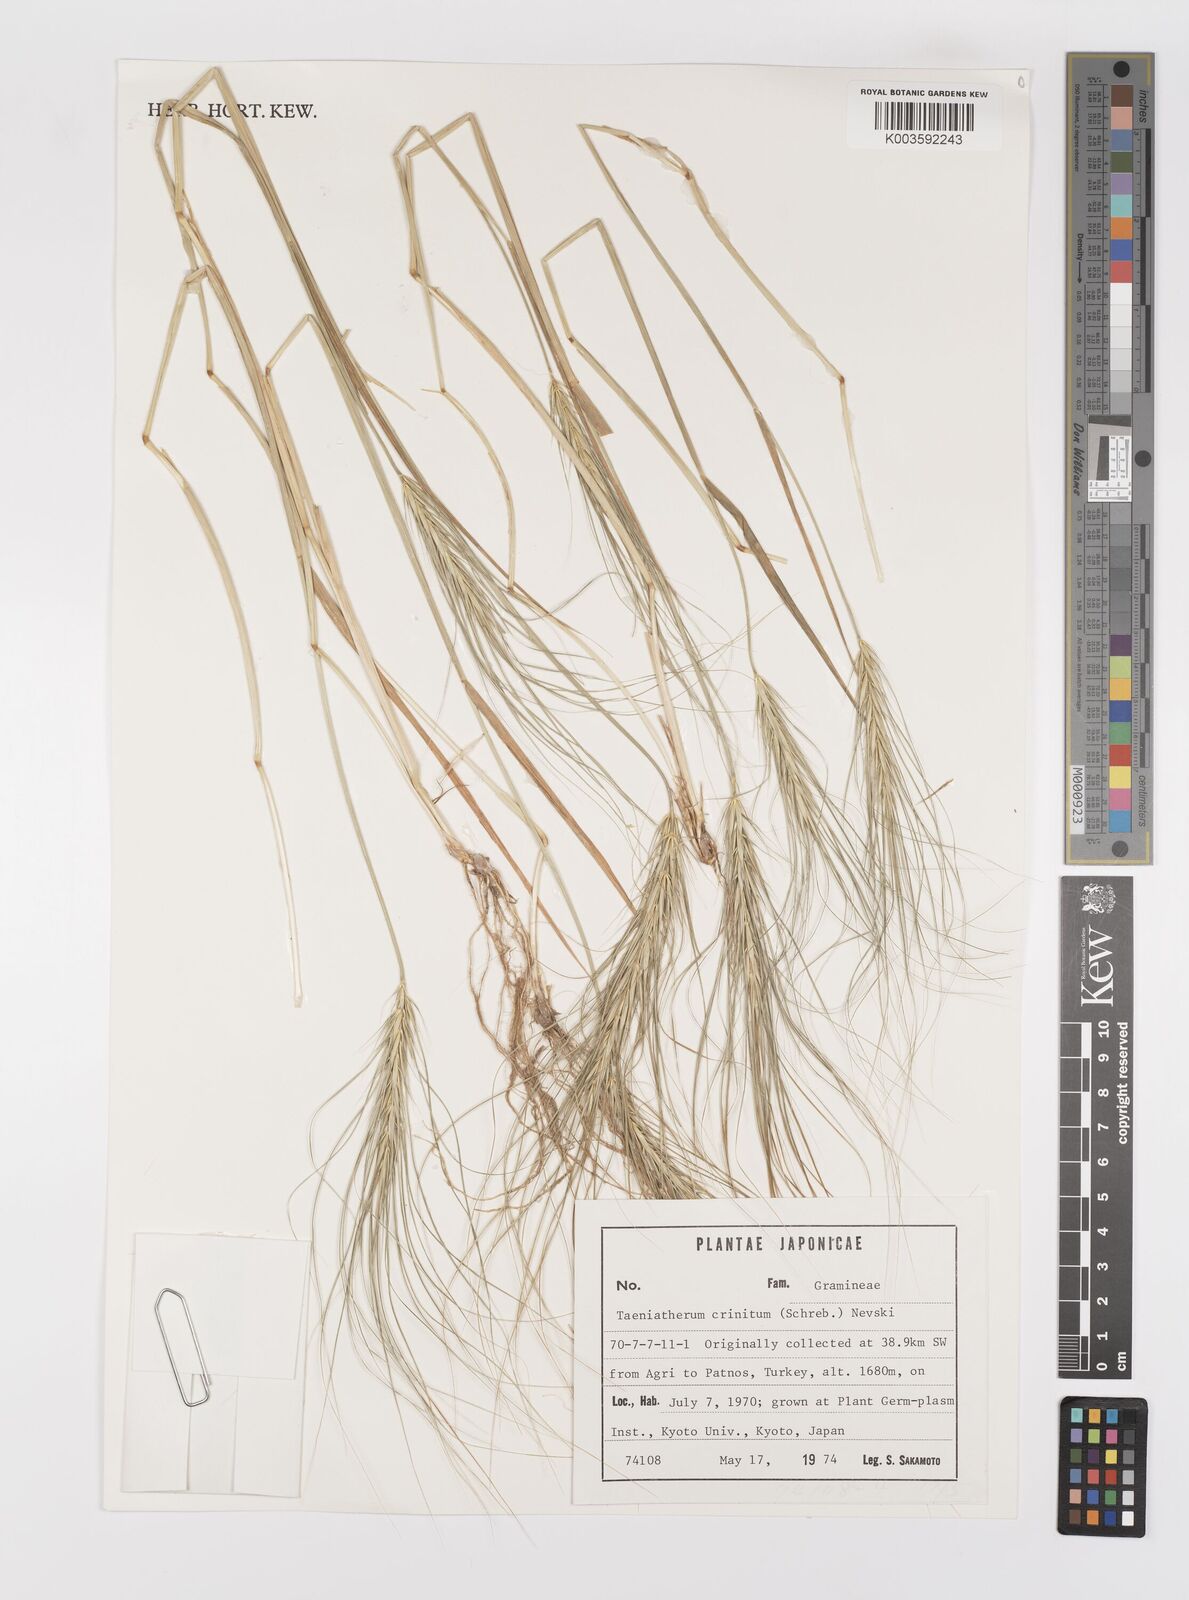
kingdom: Plantae
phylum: Tracheophyta
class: Liliopsida
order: Poales
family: Poaceae
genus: Taeniatherum
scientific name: Taeniatherum caput-medusae
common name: Medusahead
